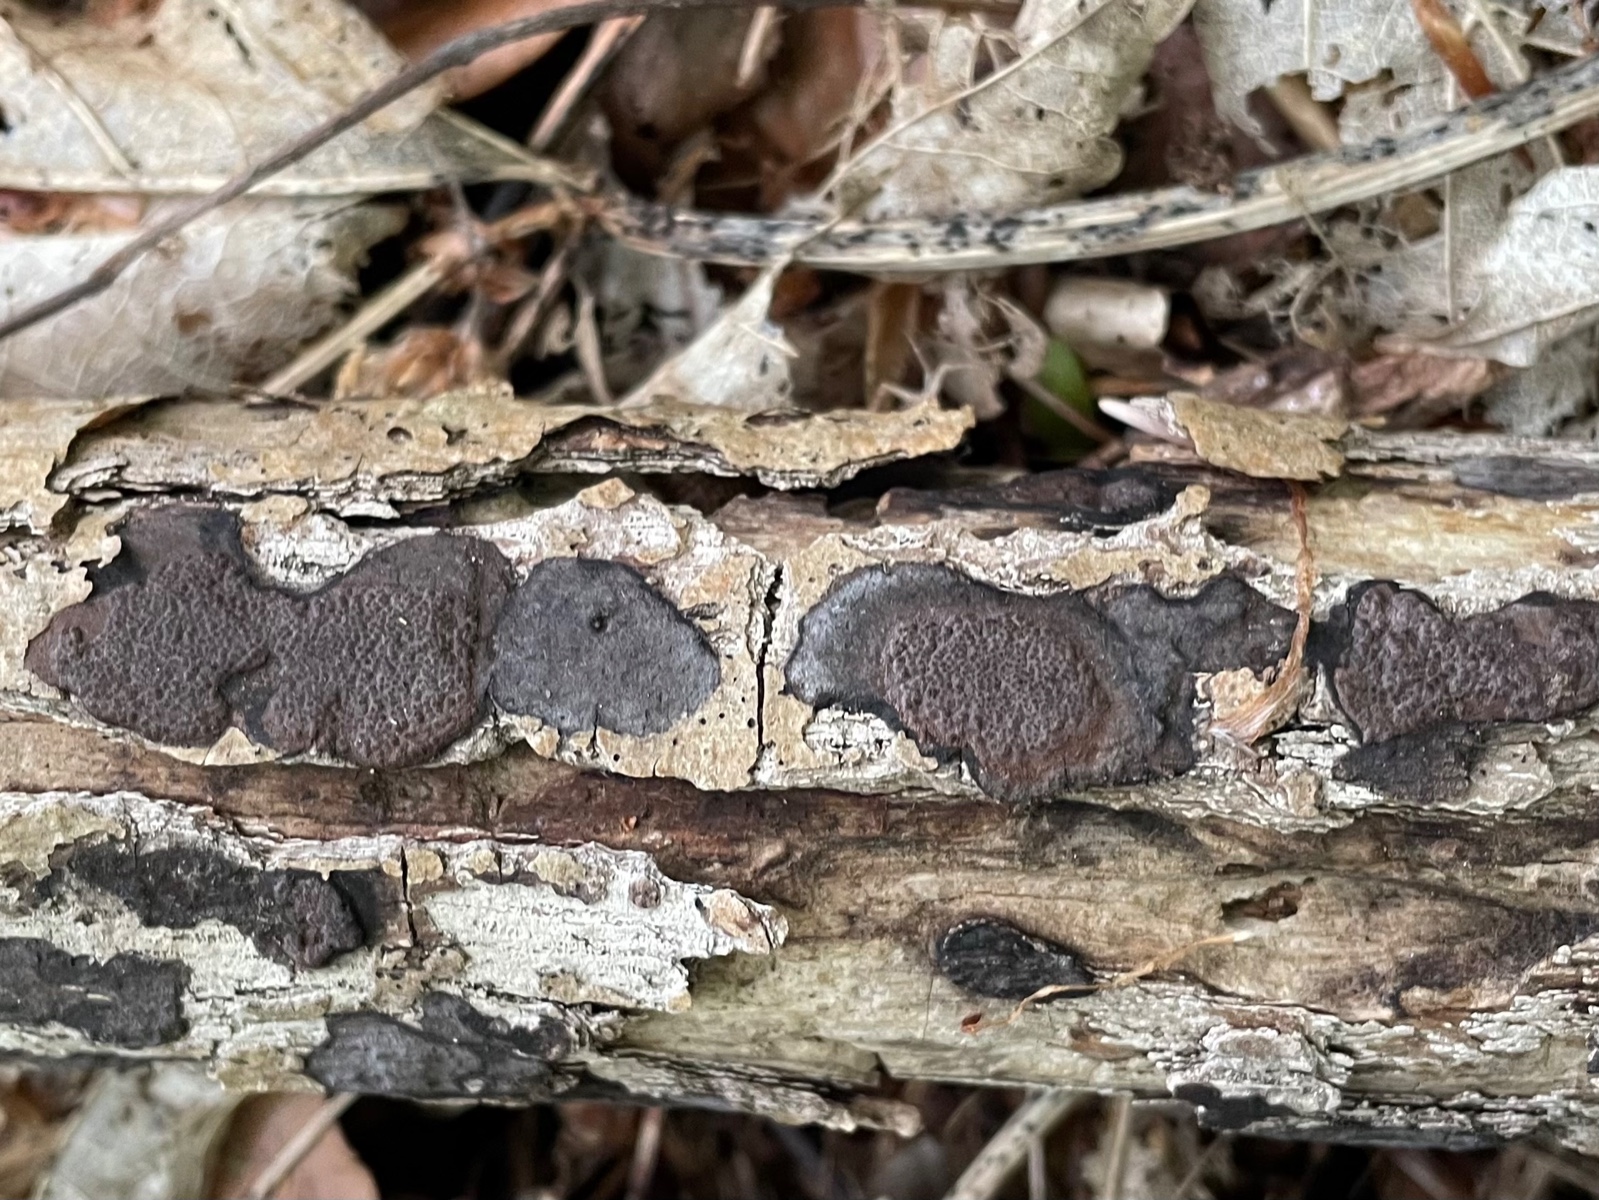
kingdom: Fungi
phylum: Ascomycota
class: Sordariomycetes
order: Xylariales
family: Hypoxylaceae
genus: Hypoxylon
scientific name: Hypoxylon petriniae
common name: nedsænket kulbær
